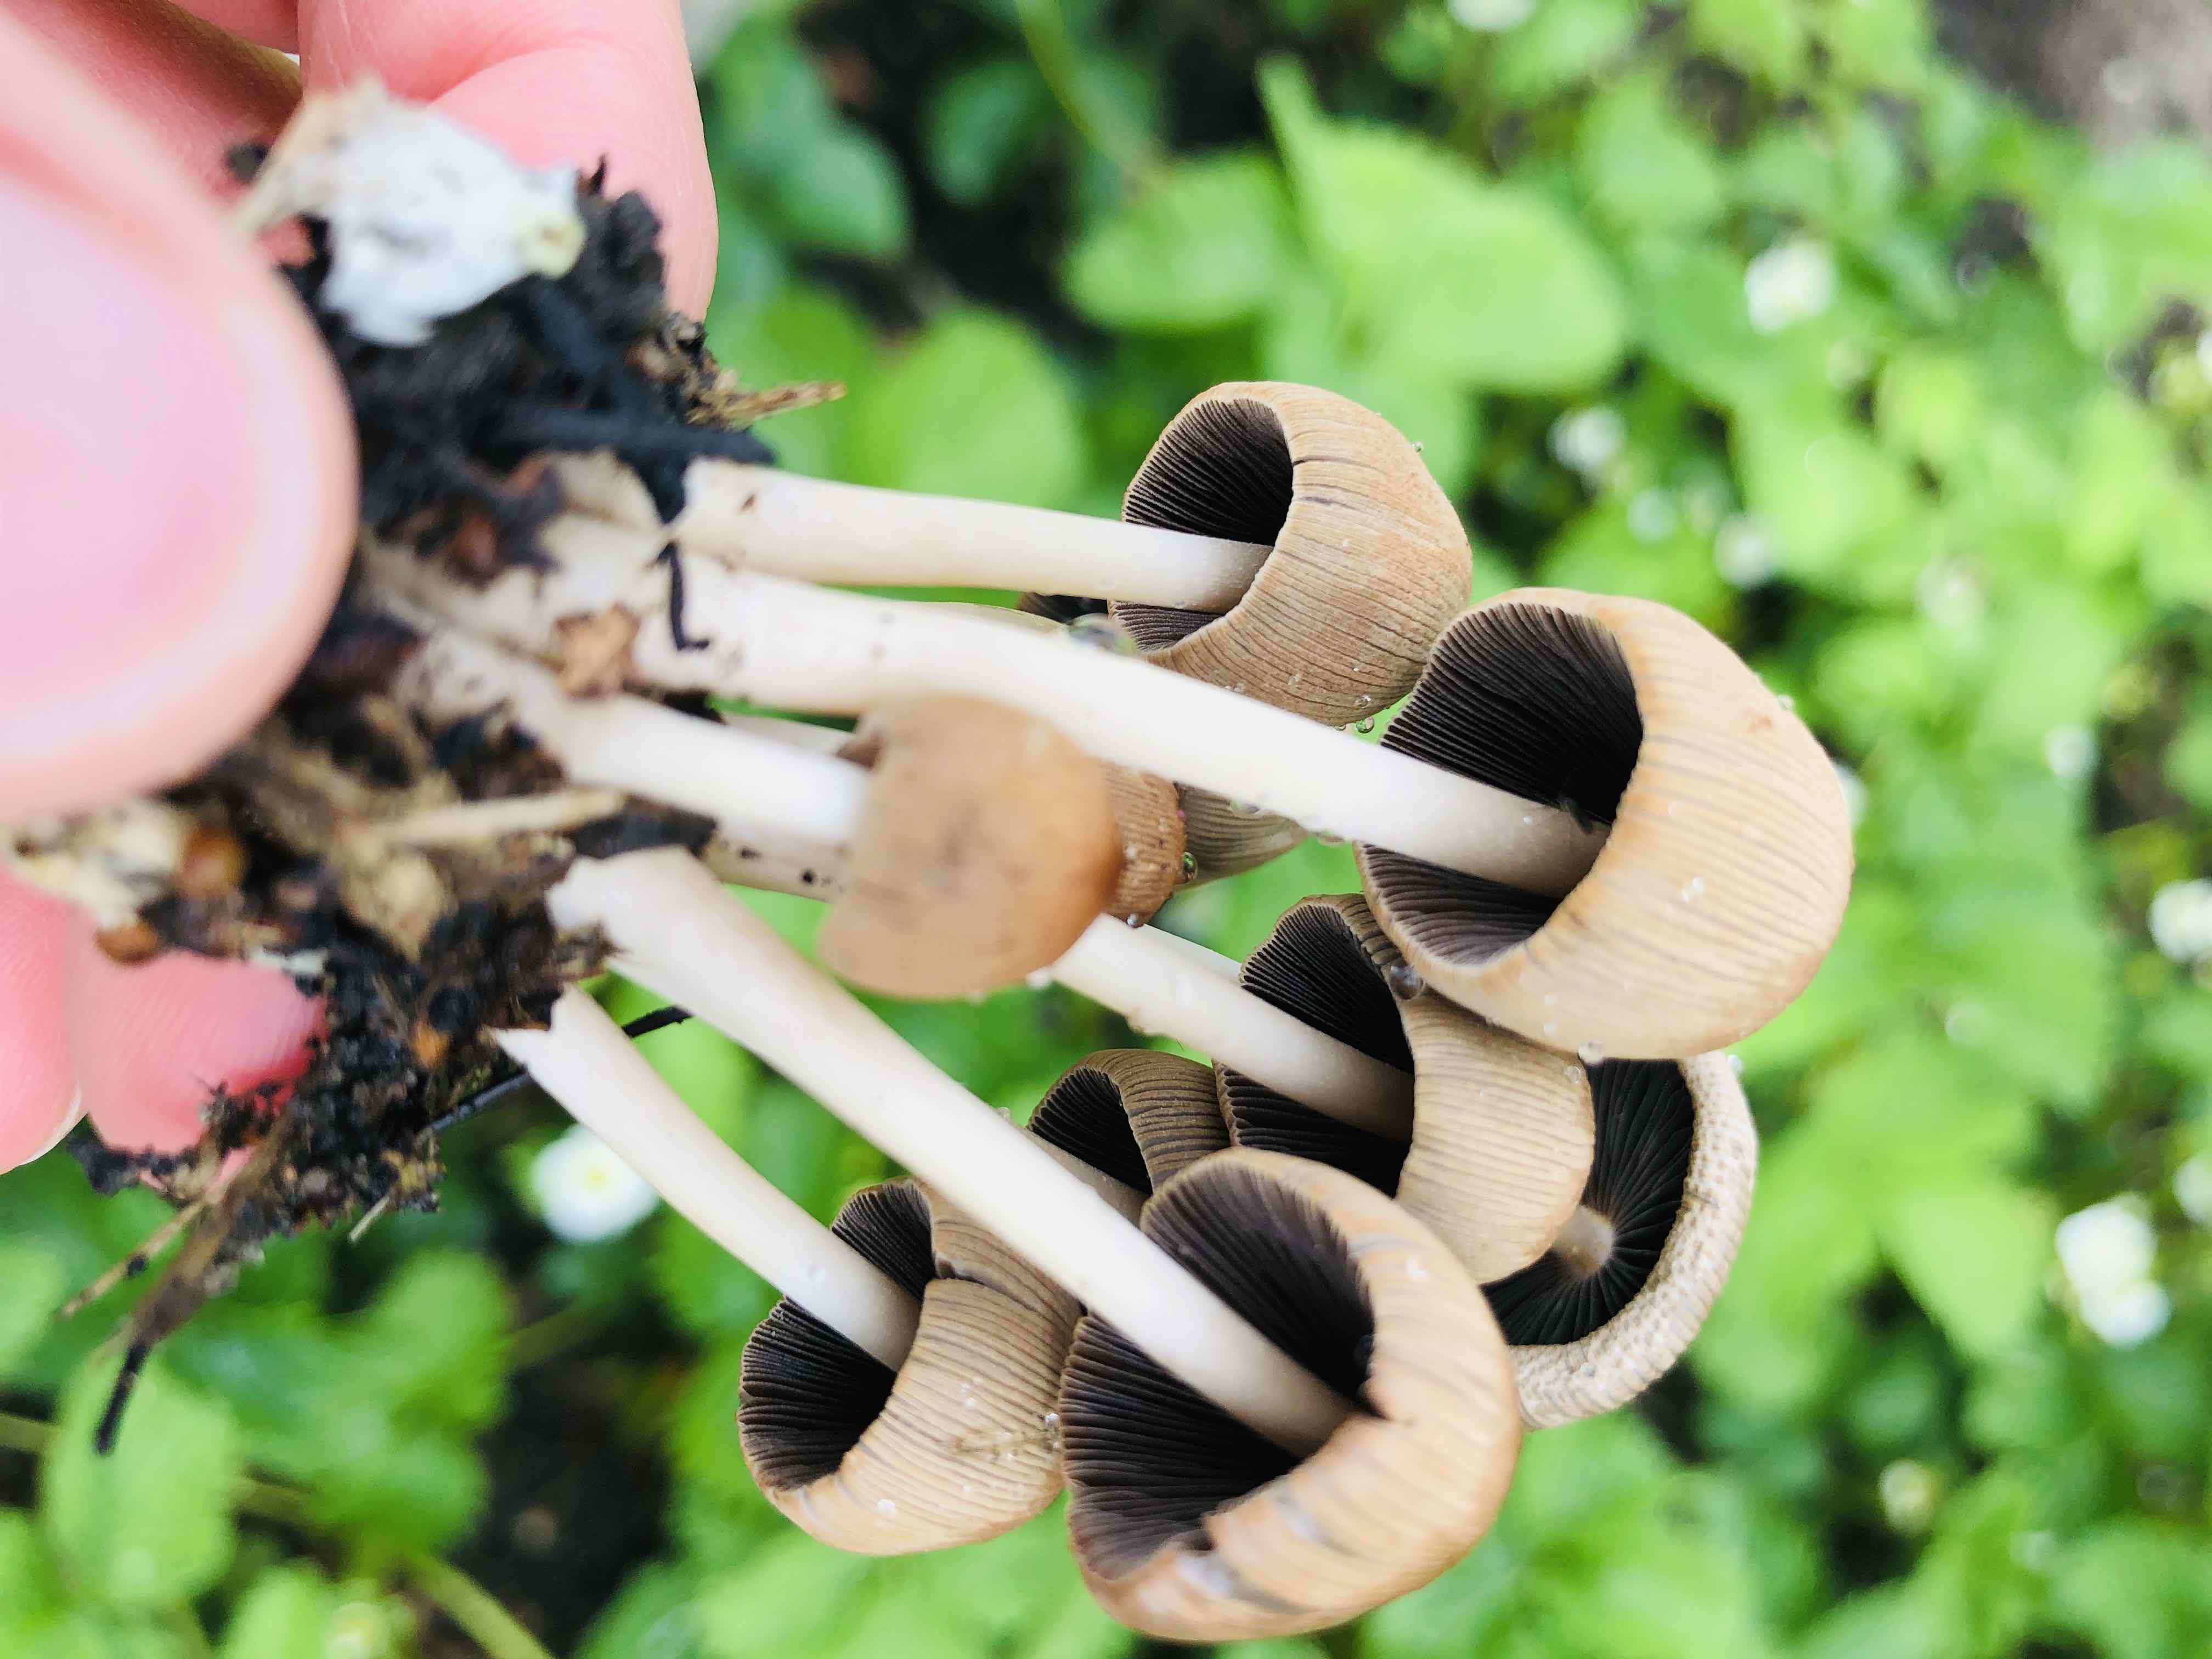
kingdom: Fungi
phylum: Basidiomycota
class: Agaricomycetes
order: Agaricales
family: Psathyrellaceae
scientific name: Psathyrellaceae
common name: mørkhatfamilien
